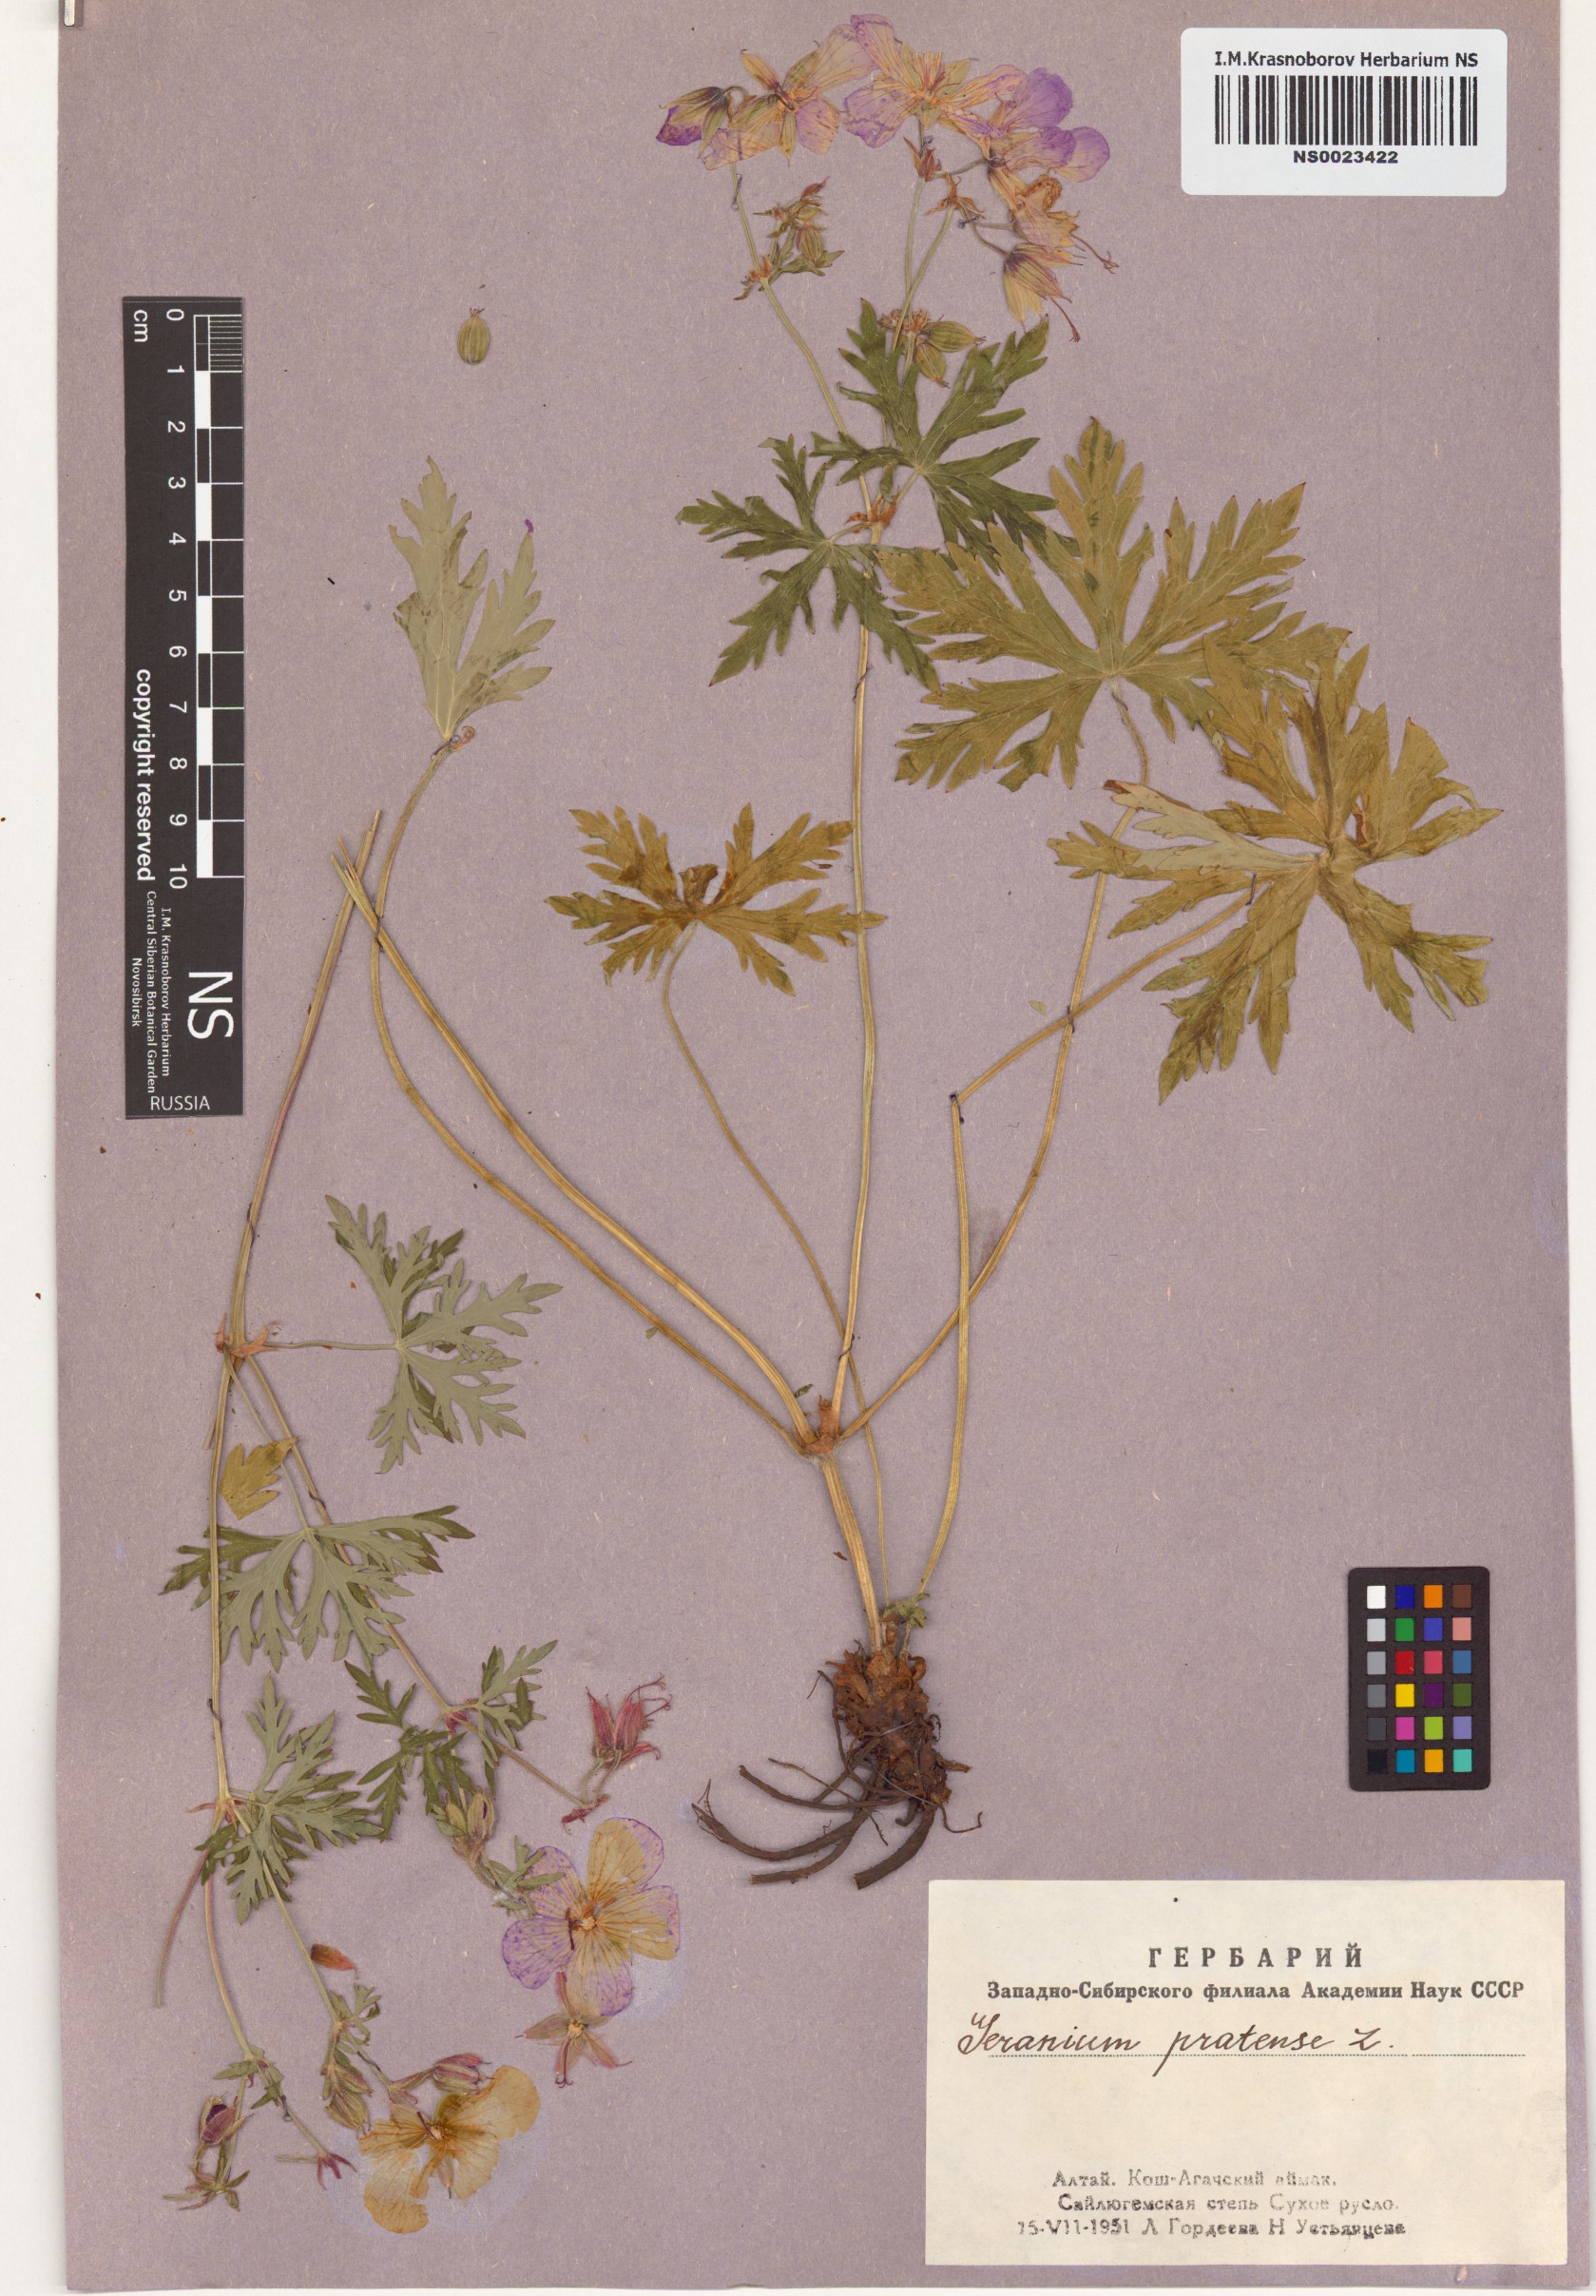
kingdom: Plantae
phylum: Tracheophyta
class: Magnoliopsida
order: Geraniales
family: Geraniaceae
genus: Geranium
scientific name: Geranium pratense
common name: Meadow crane's-bill
